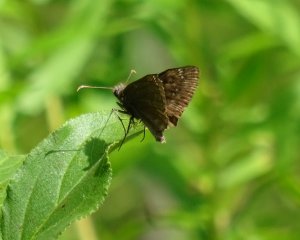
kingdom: Animalia
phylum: Arthropoda
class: Insecta
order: Lepidoptera
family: Hesperiidae
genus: Gesta
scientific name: Gesta
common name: Columbine Duskywing
